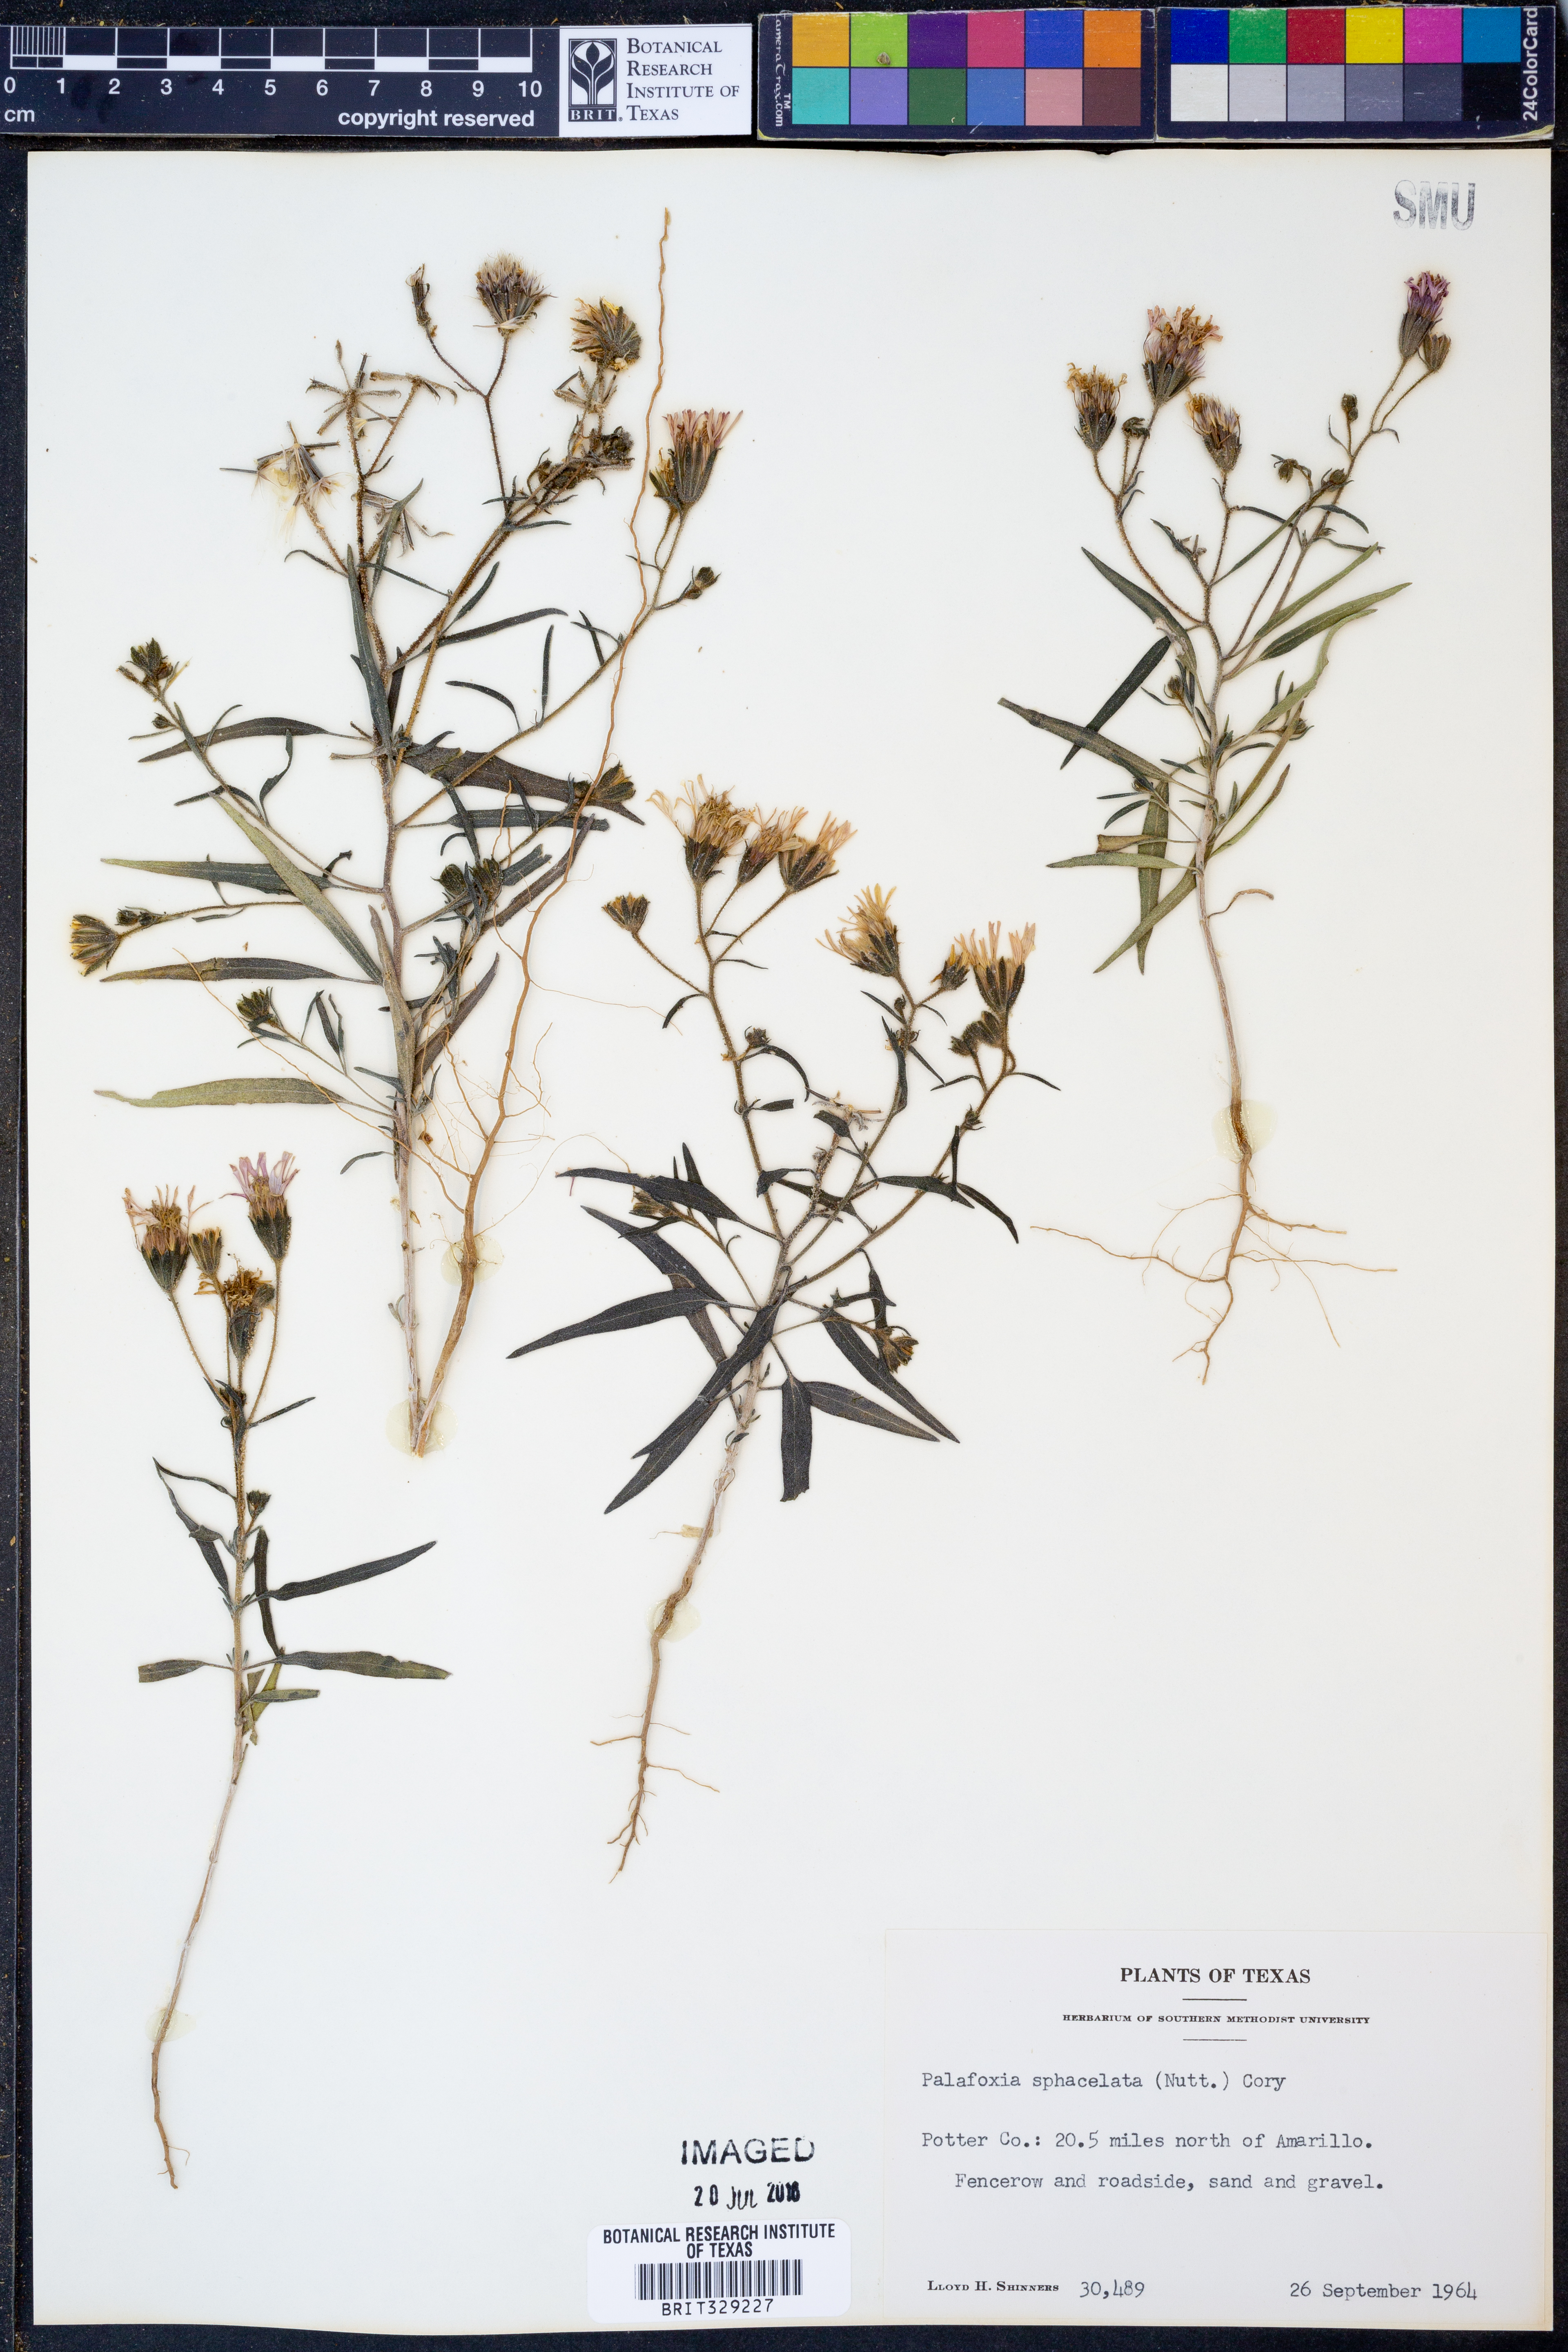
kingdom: Plantae
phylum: Tracheophyta
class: Magnoliopsida
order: Asterales
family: Asteraceae
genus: Palafoxia
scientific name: Palafoxia sphacelata
